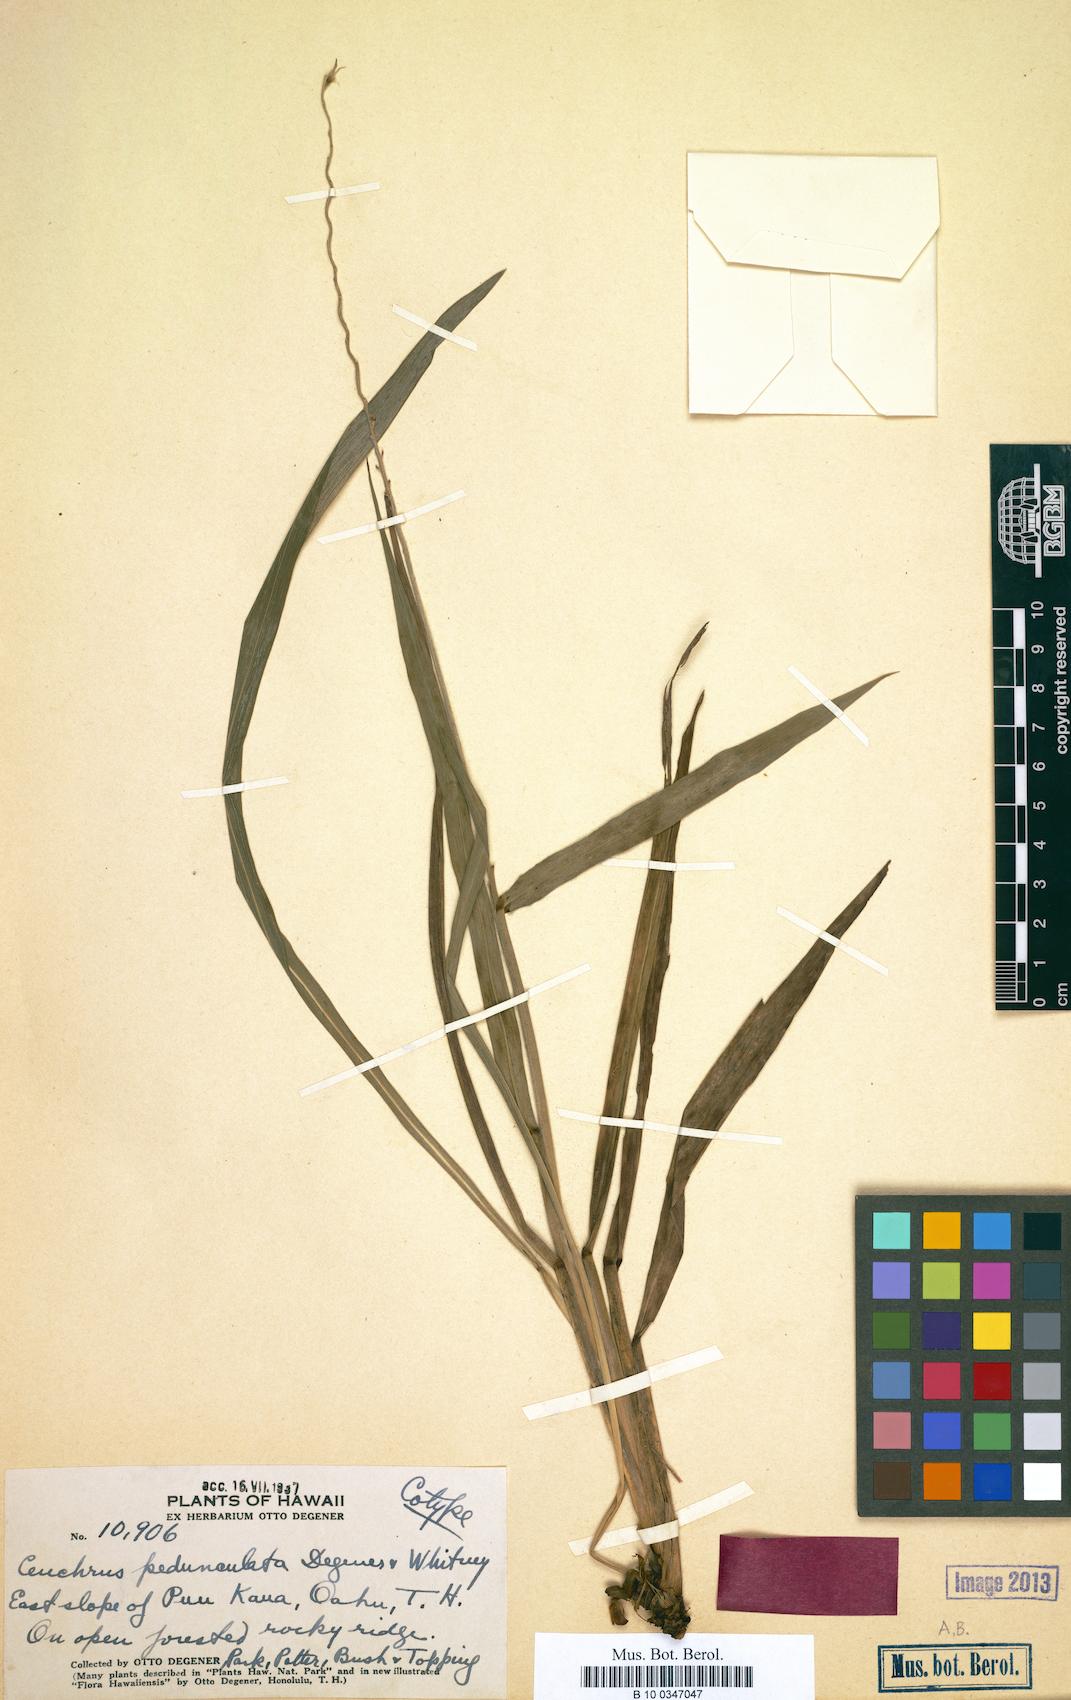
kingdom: Plantae
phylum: Tracheophyta
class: Liliopsida
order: Poales
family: Poaceae
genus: Cenchrus
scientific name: Cenchrus agrimonioides
